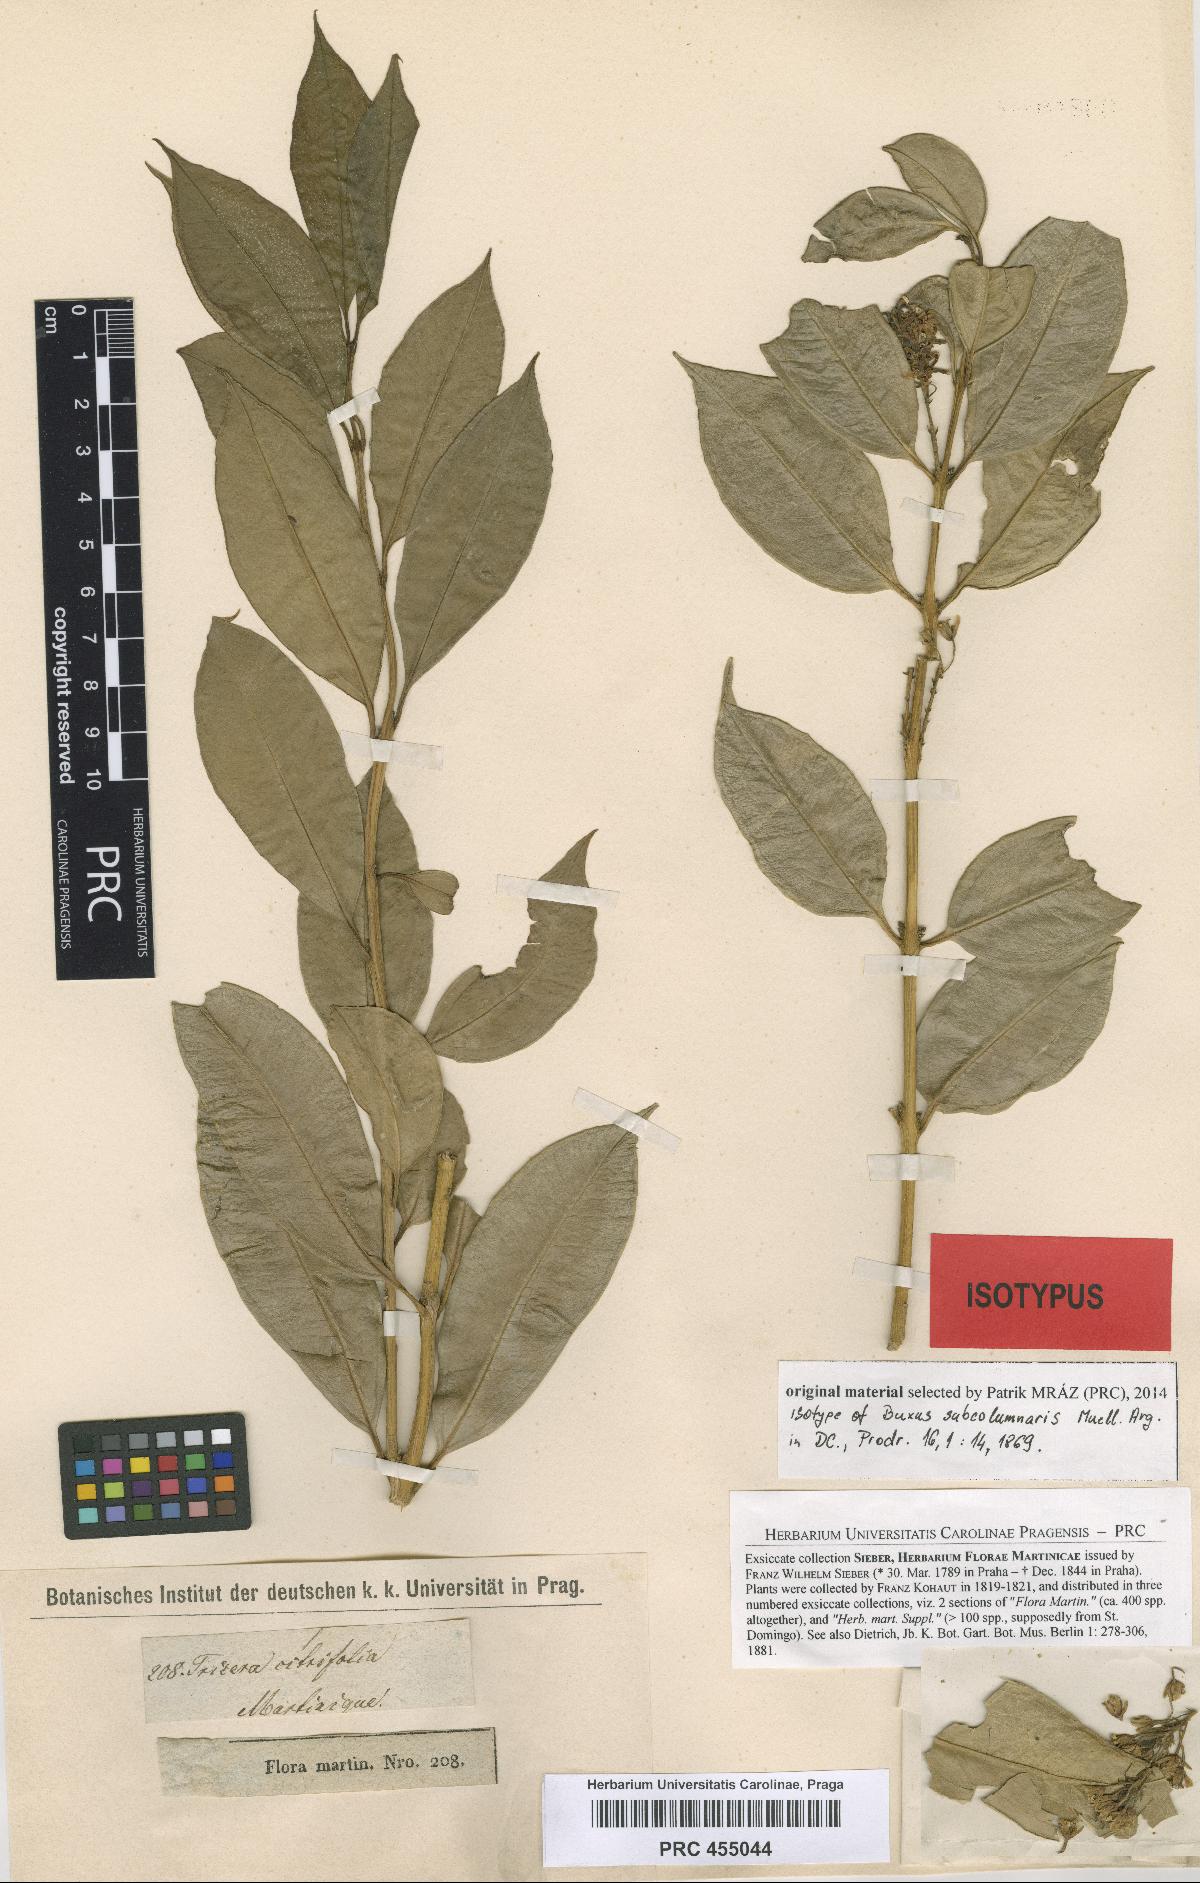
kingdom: Plantae
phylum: Tracheophyta
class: Magnoliopsida
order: Buxales
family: Buxaceae
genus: Buxus
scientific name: Buxus subcolumnaris
